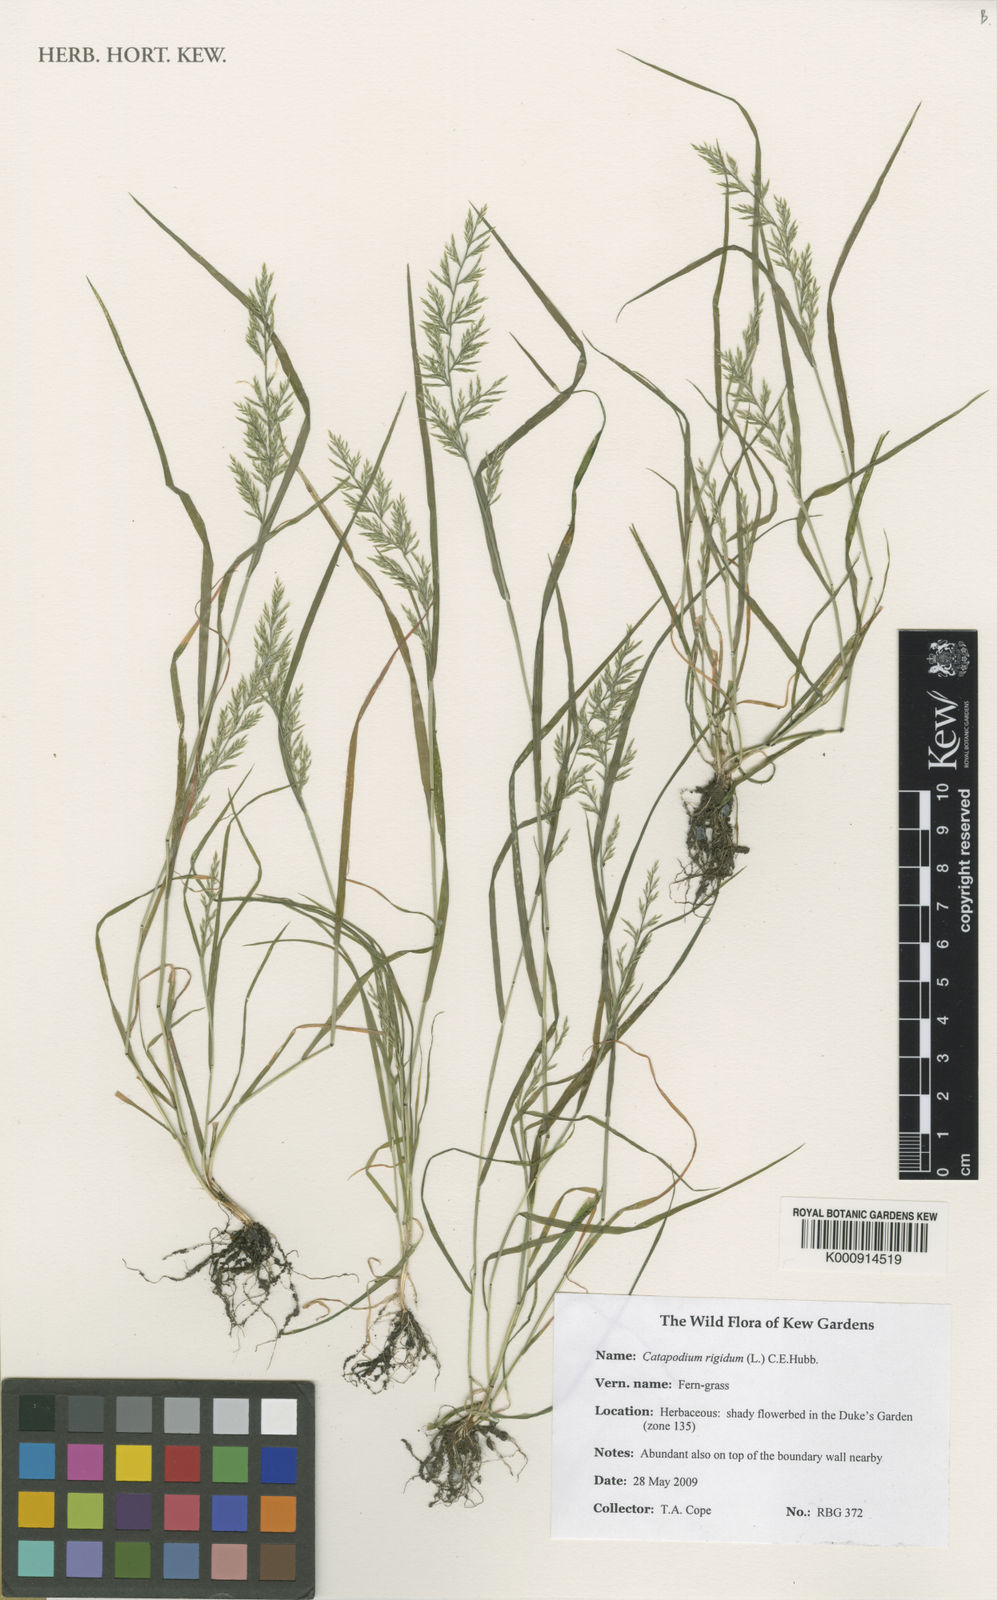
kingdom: Plantae
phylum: Tracheophyta
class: Liliopsida
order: Poales
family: Poaceae
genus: Catapodium
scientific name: Catapodium rigidum
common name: Fern-grass
